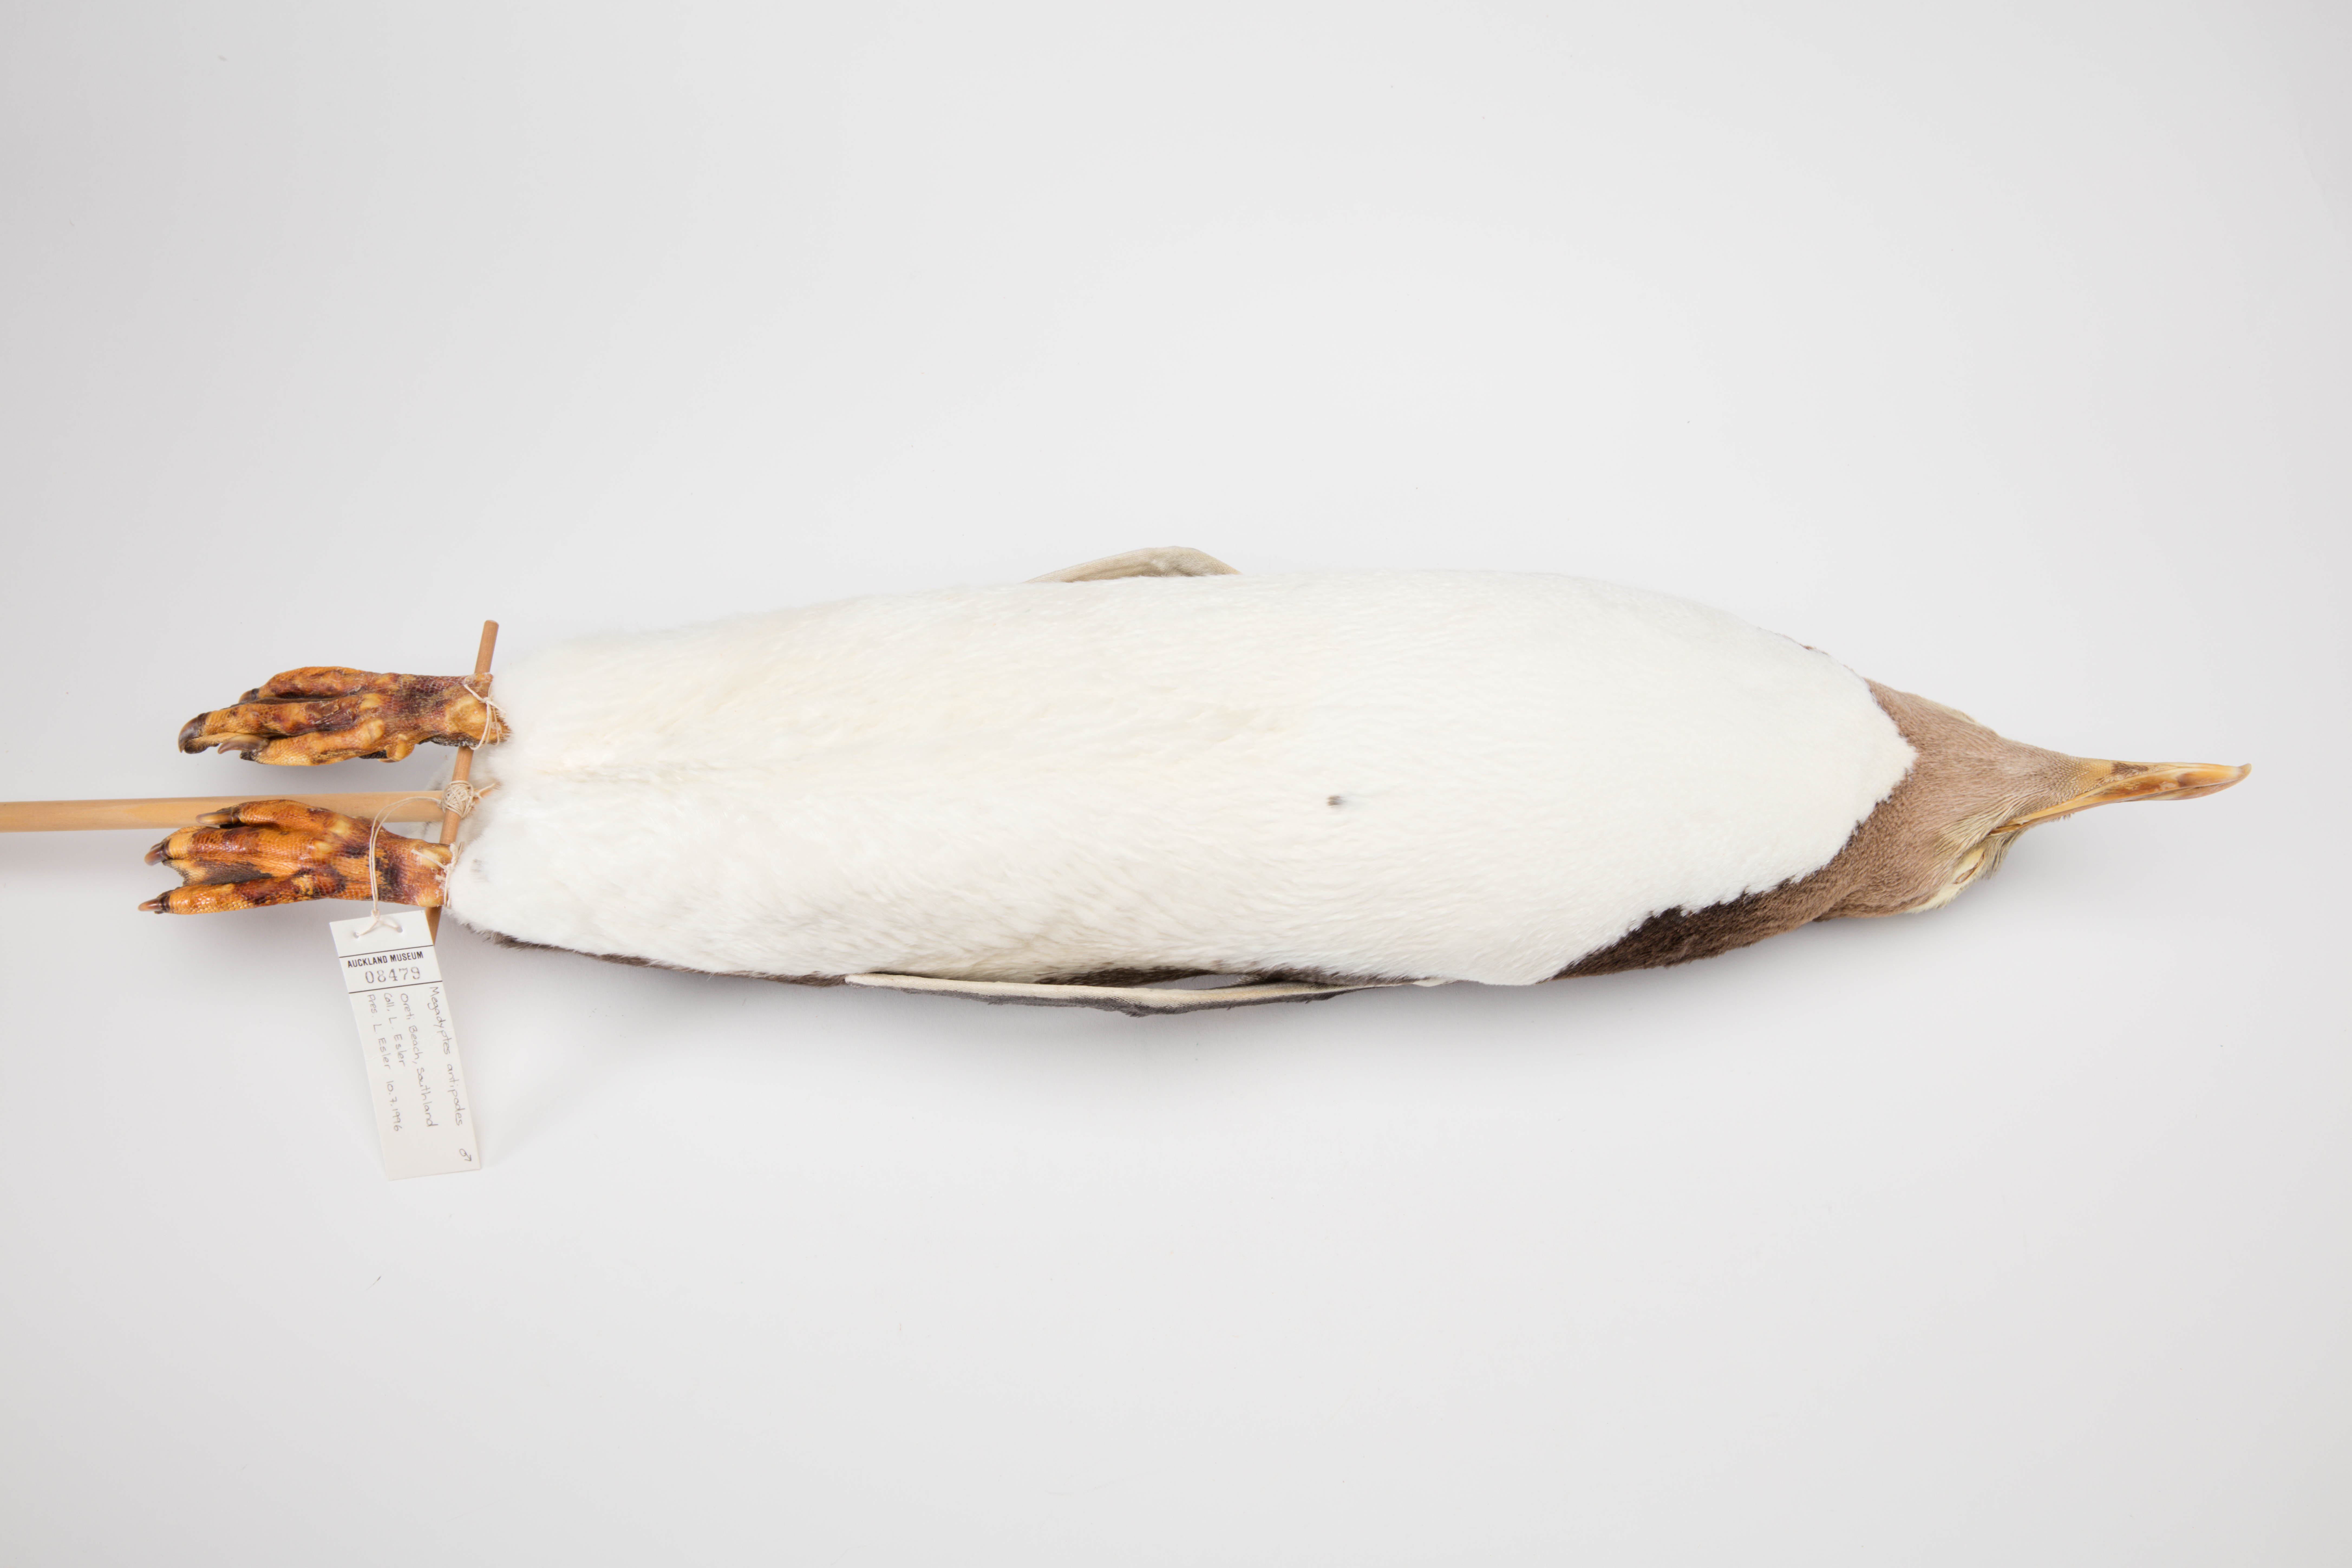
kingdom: Animalia
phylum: Chordata
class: Aves
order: Sphenisciformes
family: Spheniscidae
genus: Megadyptes
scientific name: Megadyptes antipodes
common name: Yellow-eyed penguin
